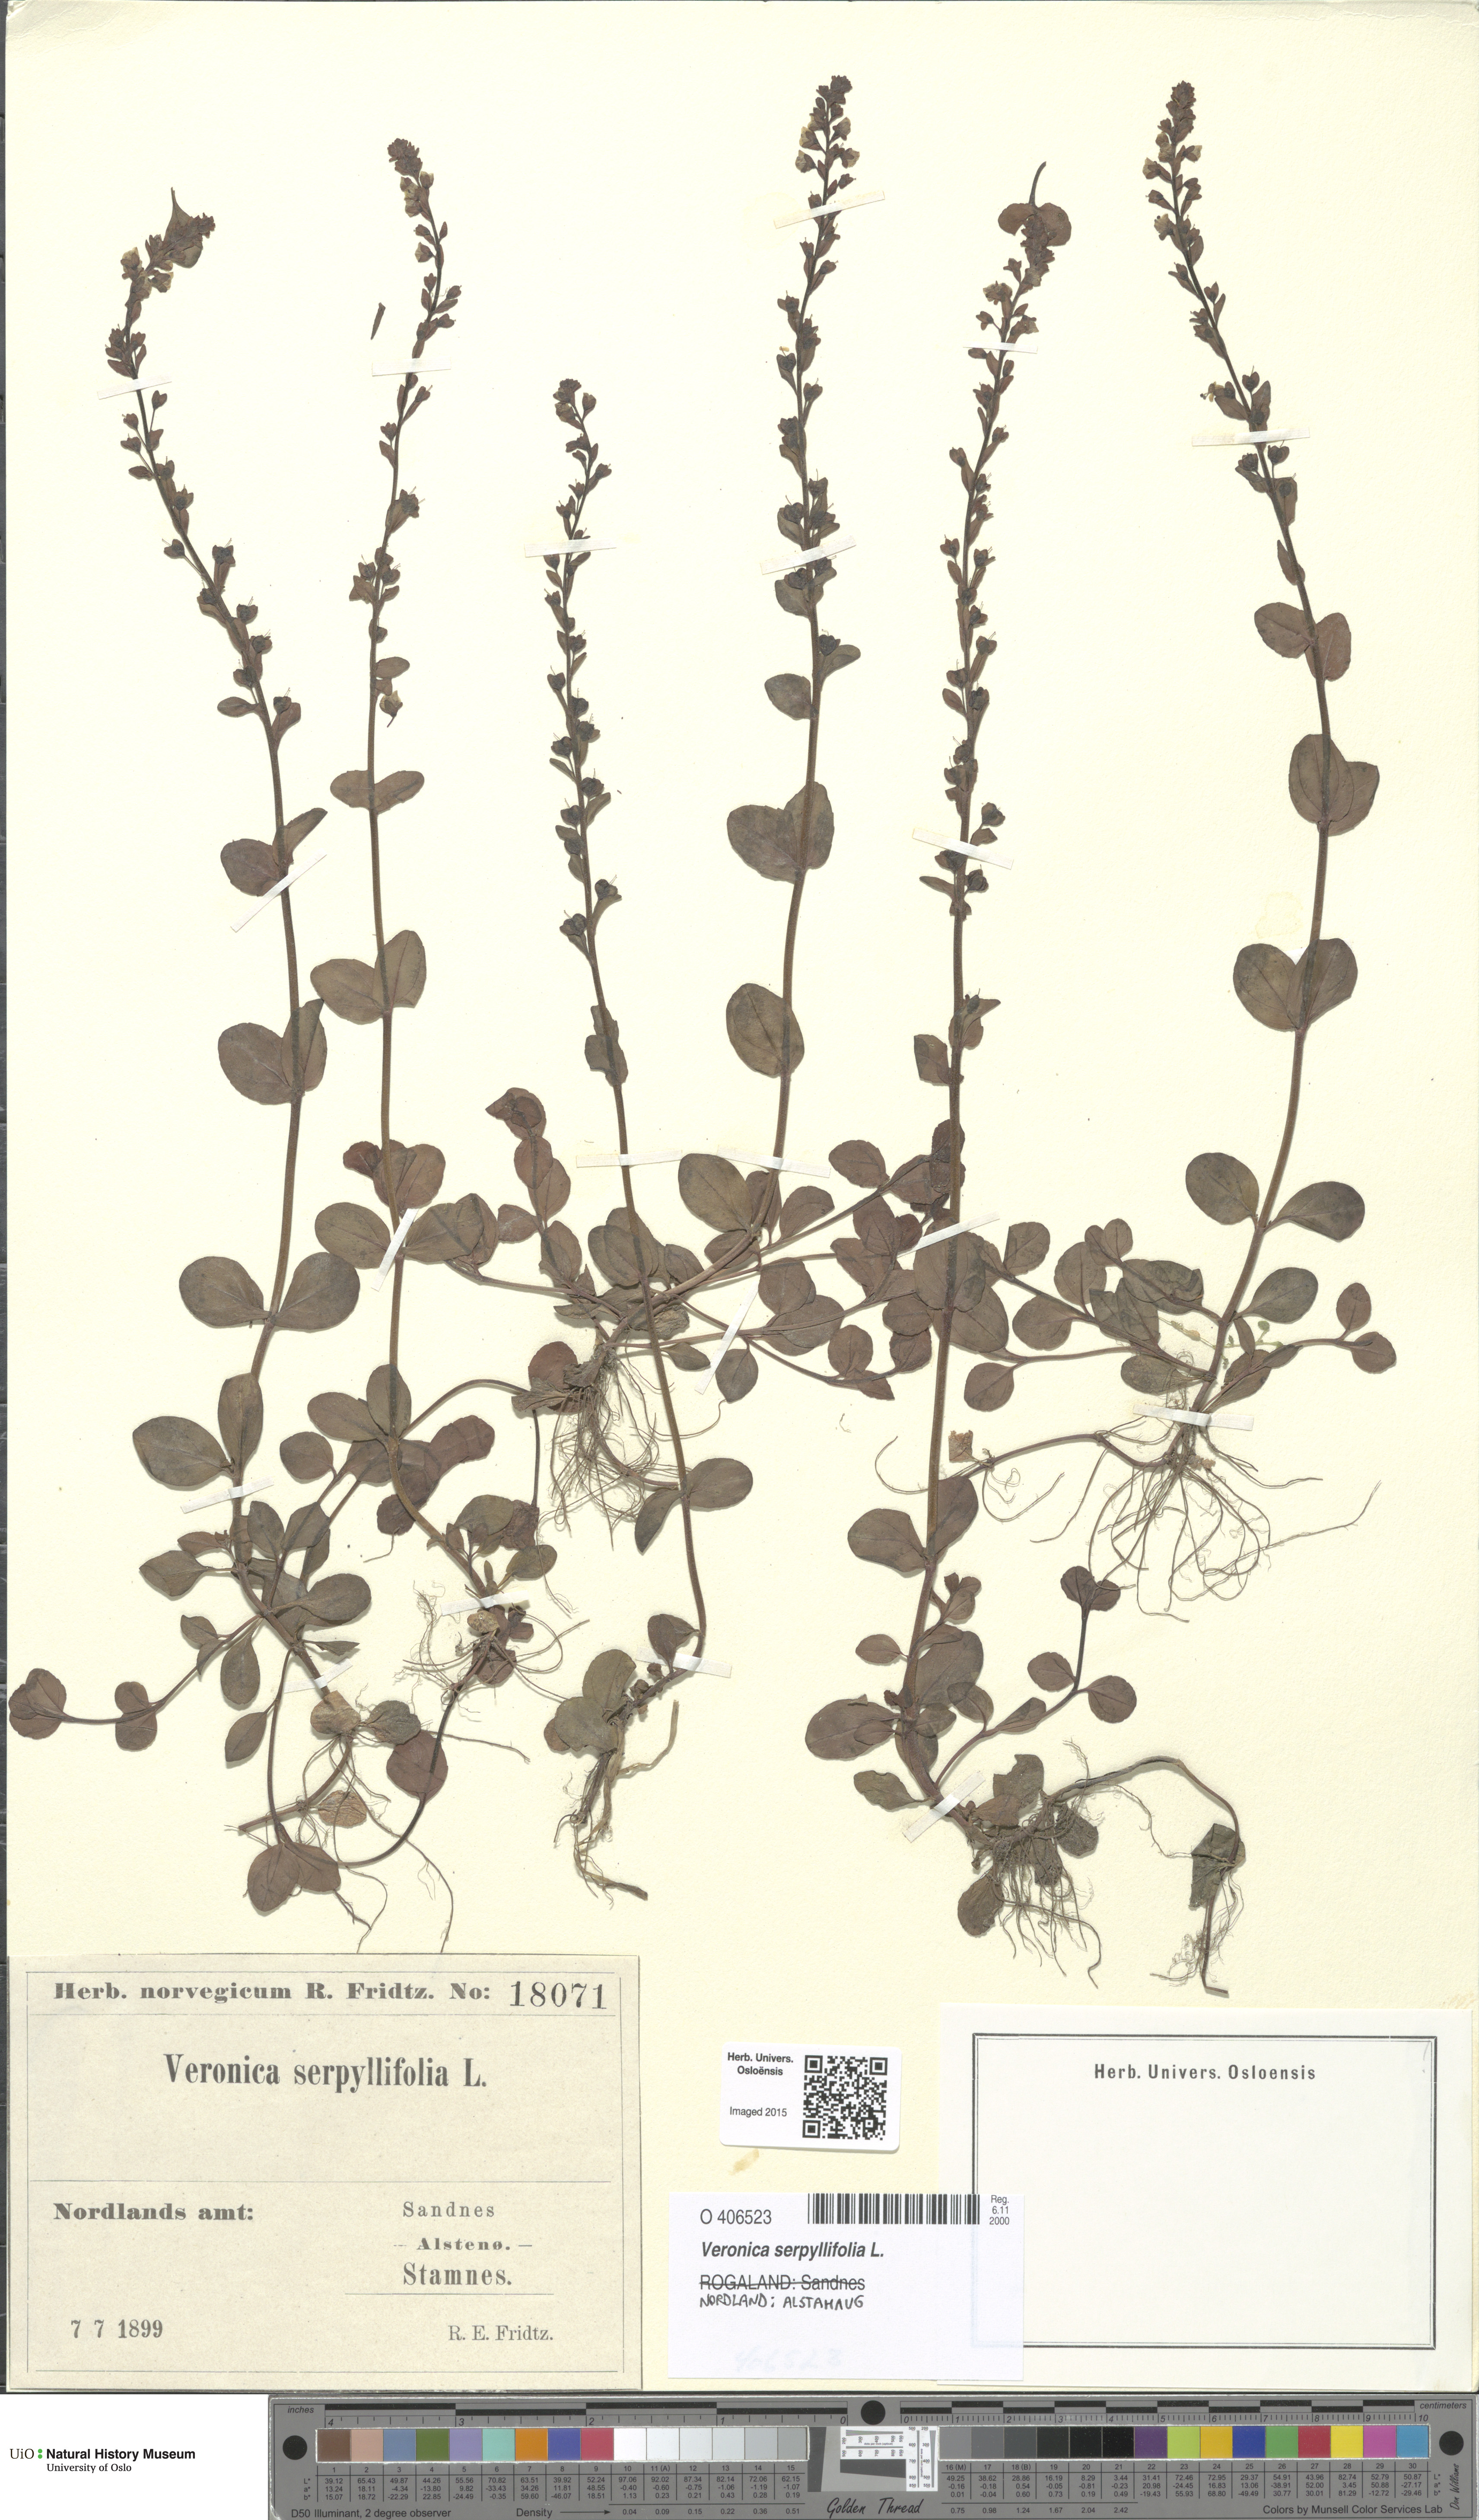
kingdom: Plantae
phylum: Tracheophyta
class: Magnoliopsida
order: Lamiales
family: Plantaginaceae
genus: Veronica
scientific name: Veronica serpyllifolia
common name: Thyme-leaved speedwell
